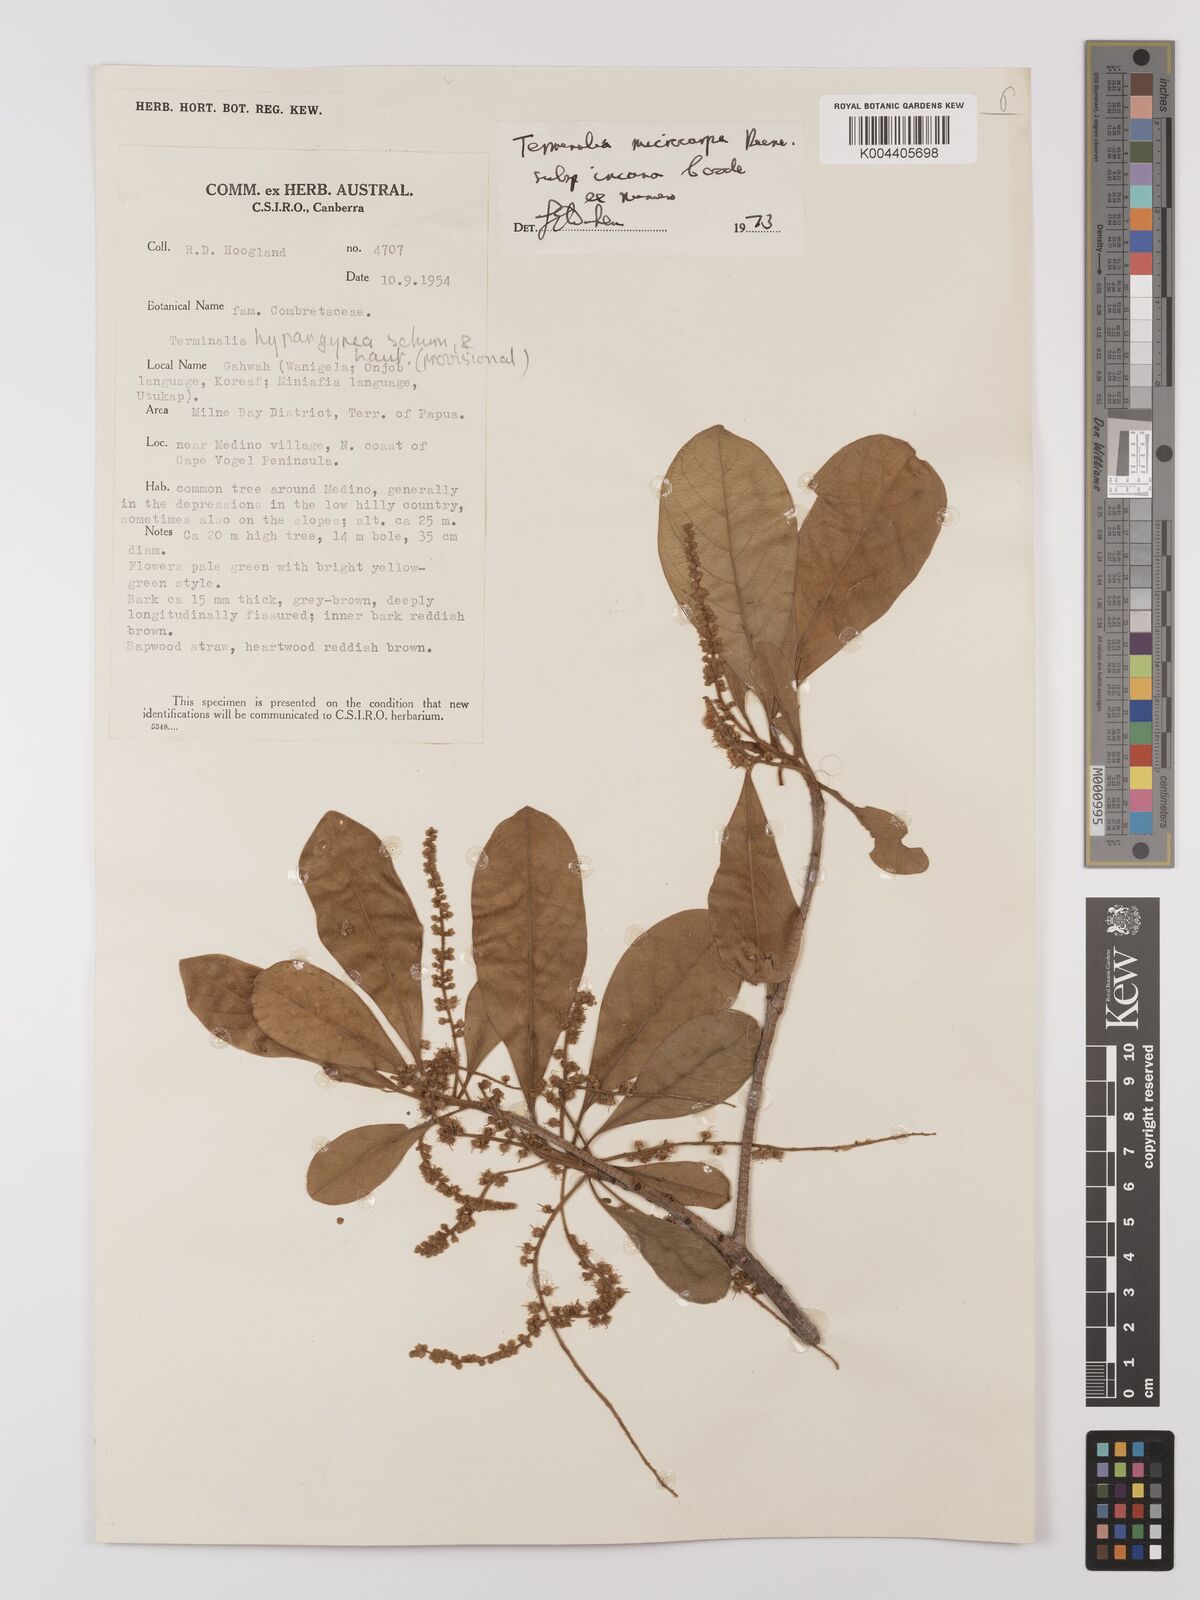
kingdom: Plantae
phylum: Tracheophyta
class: Magnoliopsida
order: Myrtales
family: Combretaceae
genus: Terminalia
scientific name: Terminalia microcarpa
